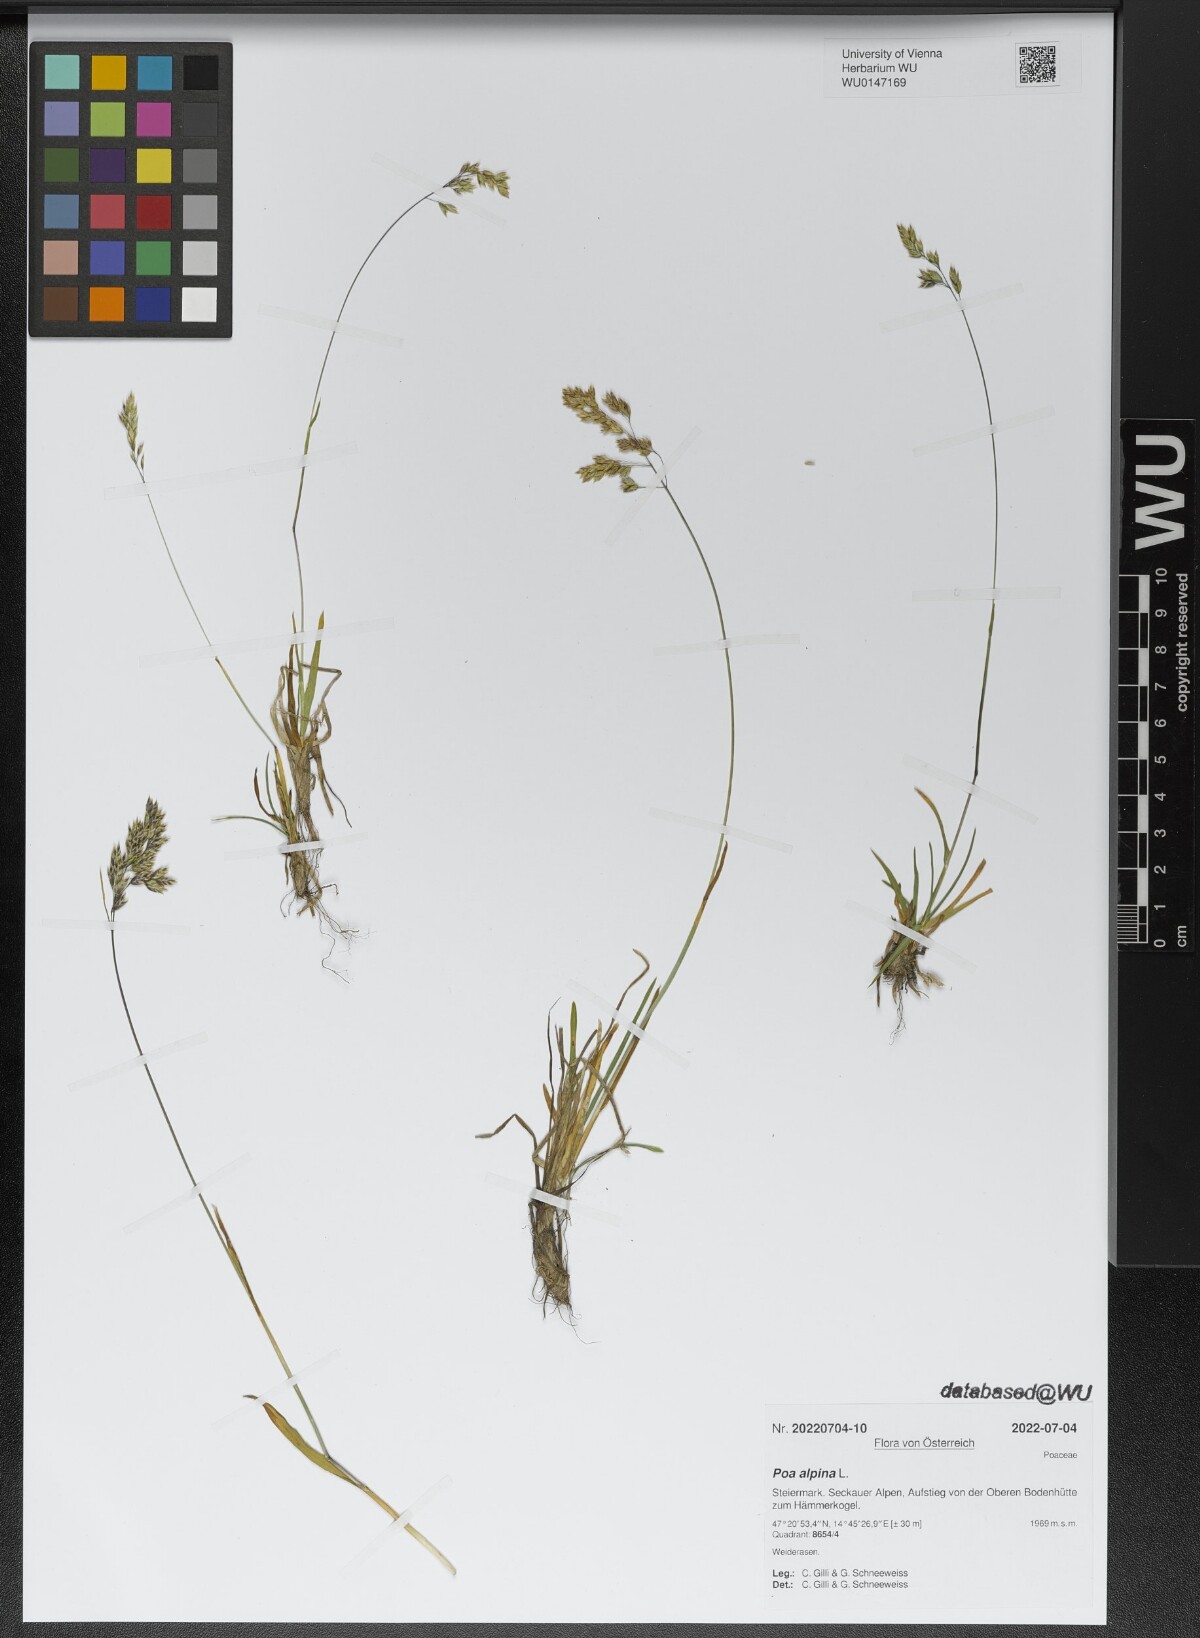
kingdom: Plantae
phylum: Tracheophyta
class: Liliopsida
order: Poales
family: Poaceae
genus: Poa
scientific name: Poa alpina
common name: Alpine bluegrass
